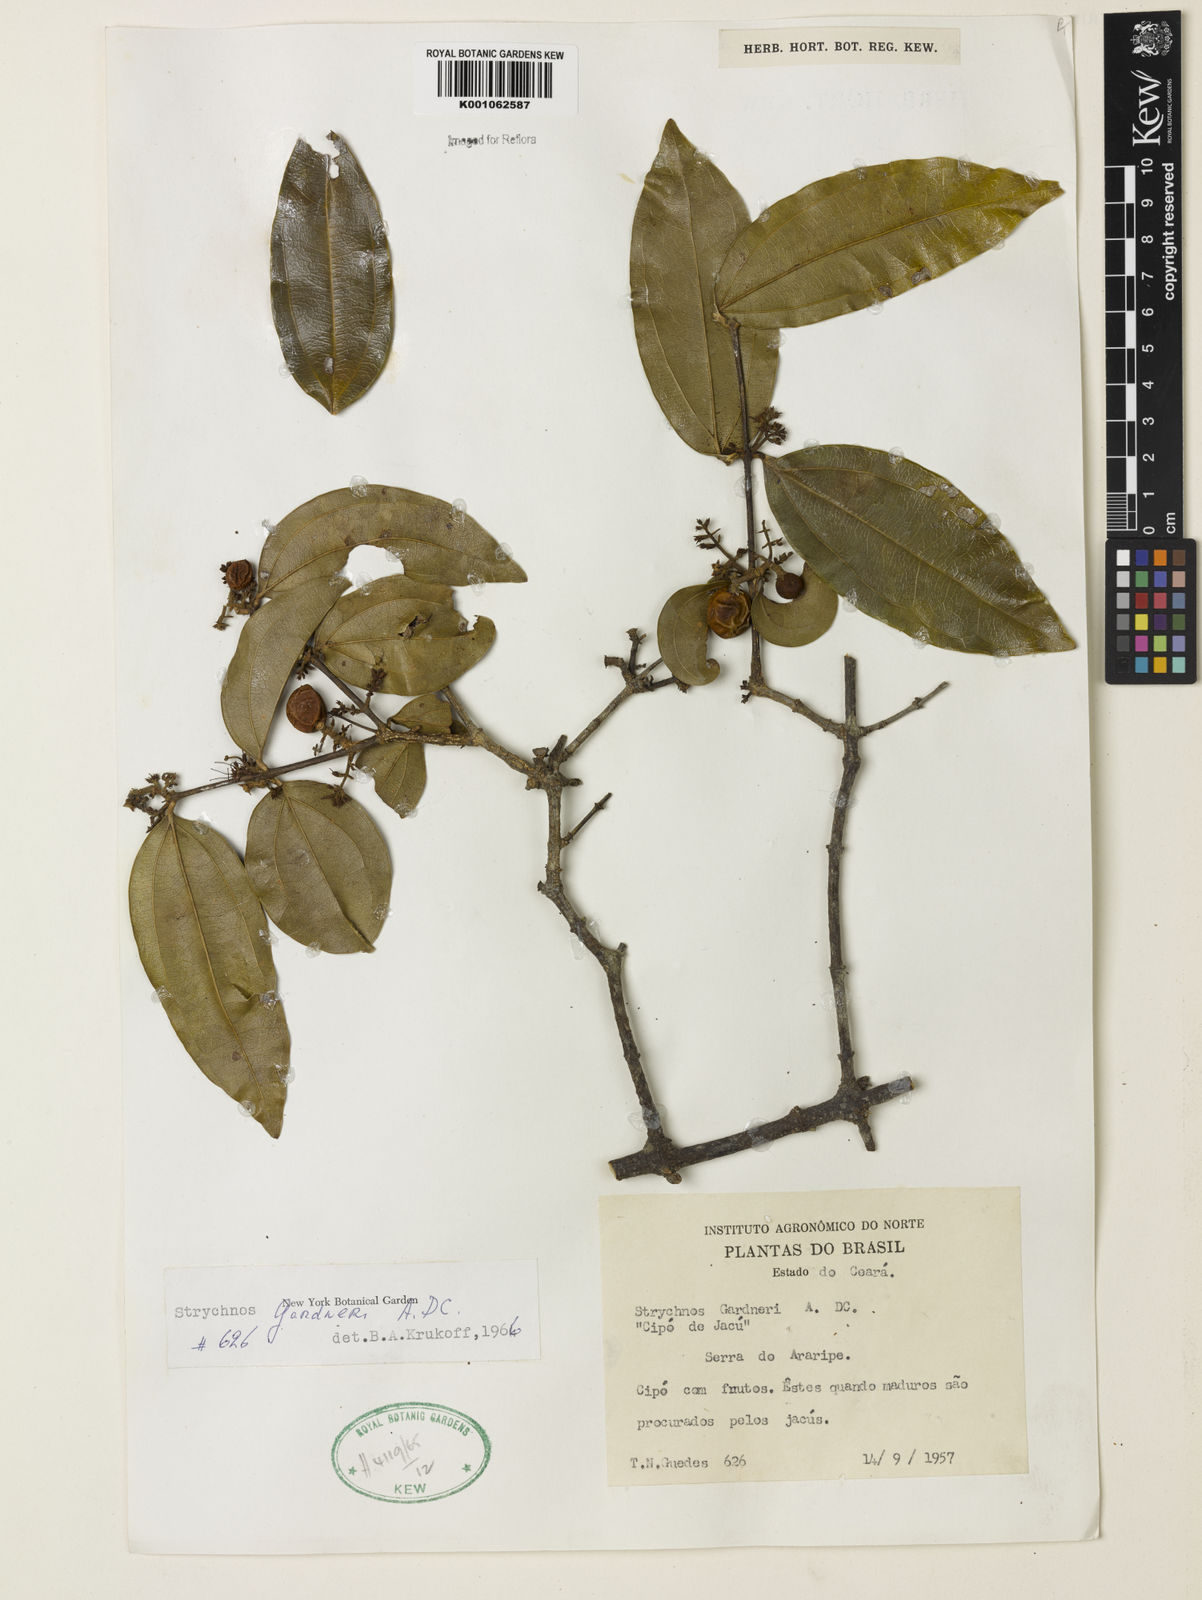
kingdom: Plantae
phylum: Tracheophyta
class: Magnoliopsida
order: Gentianales
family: Loganiaceae
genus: Strychnos
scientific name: Strychnos gardneri
